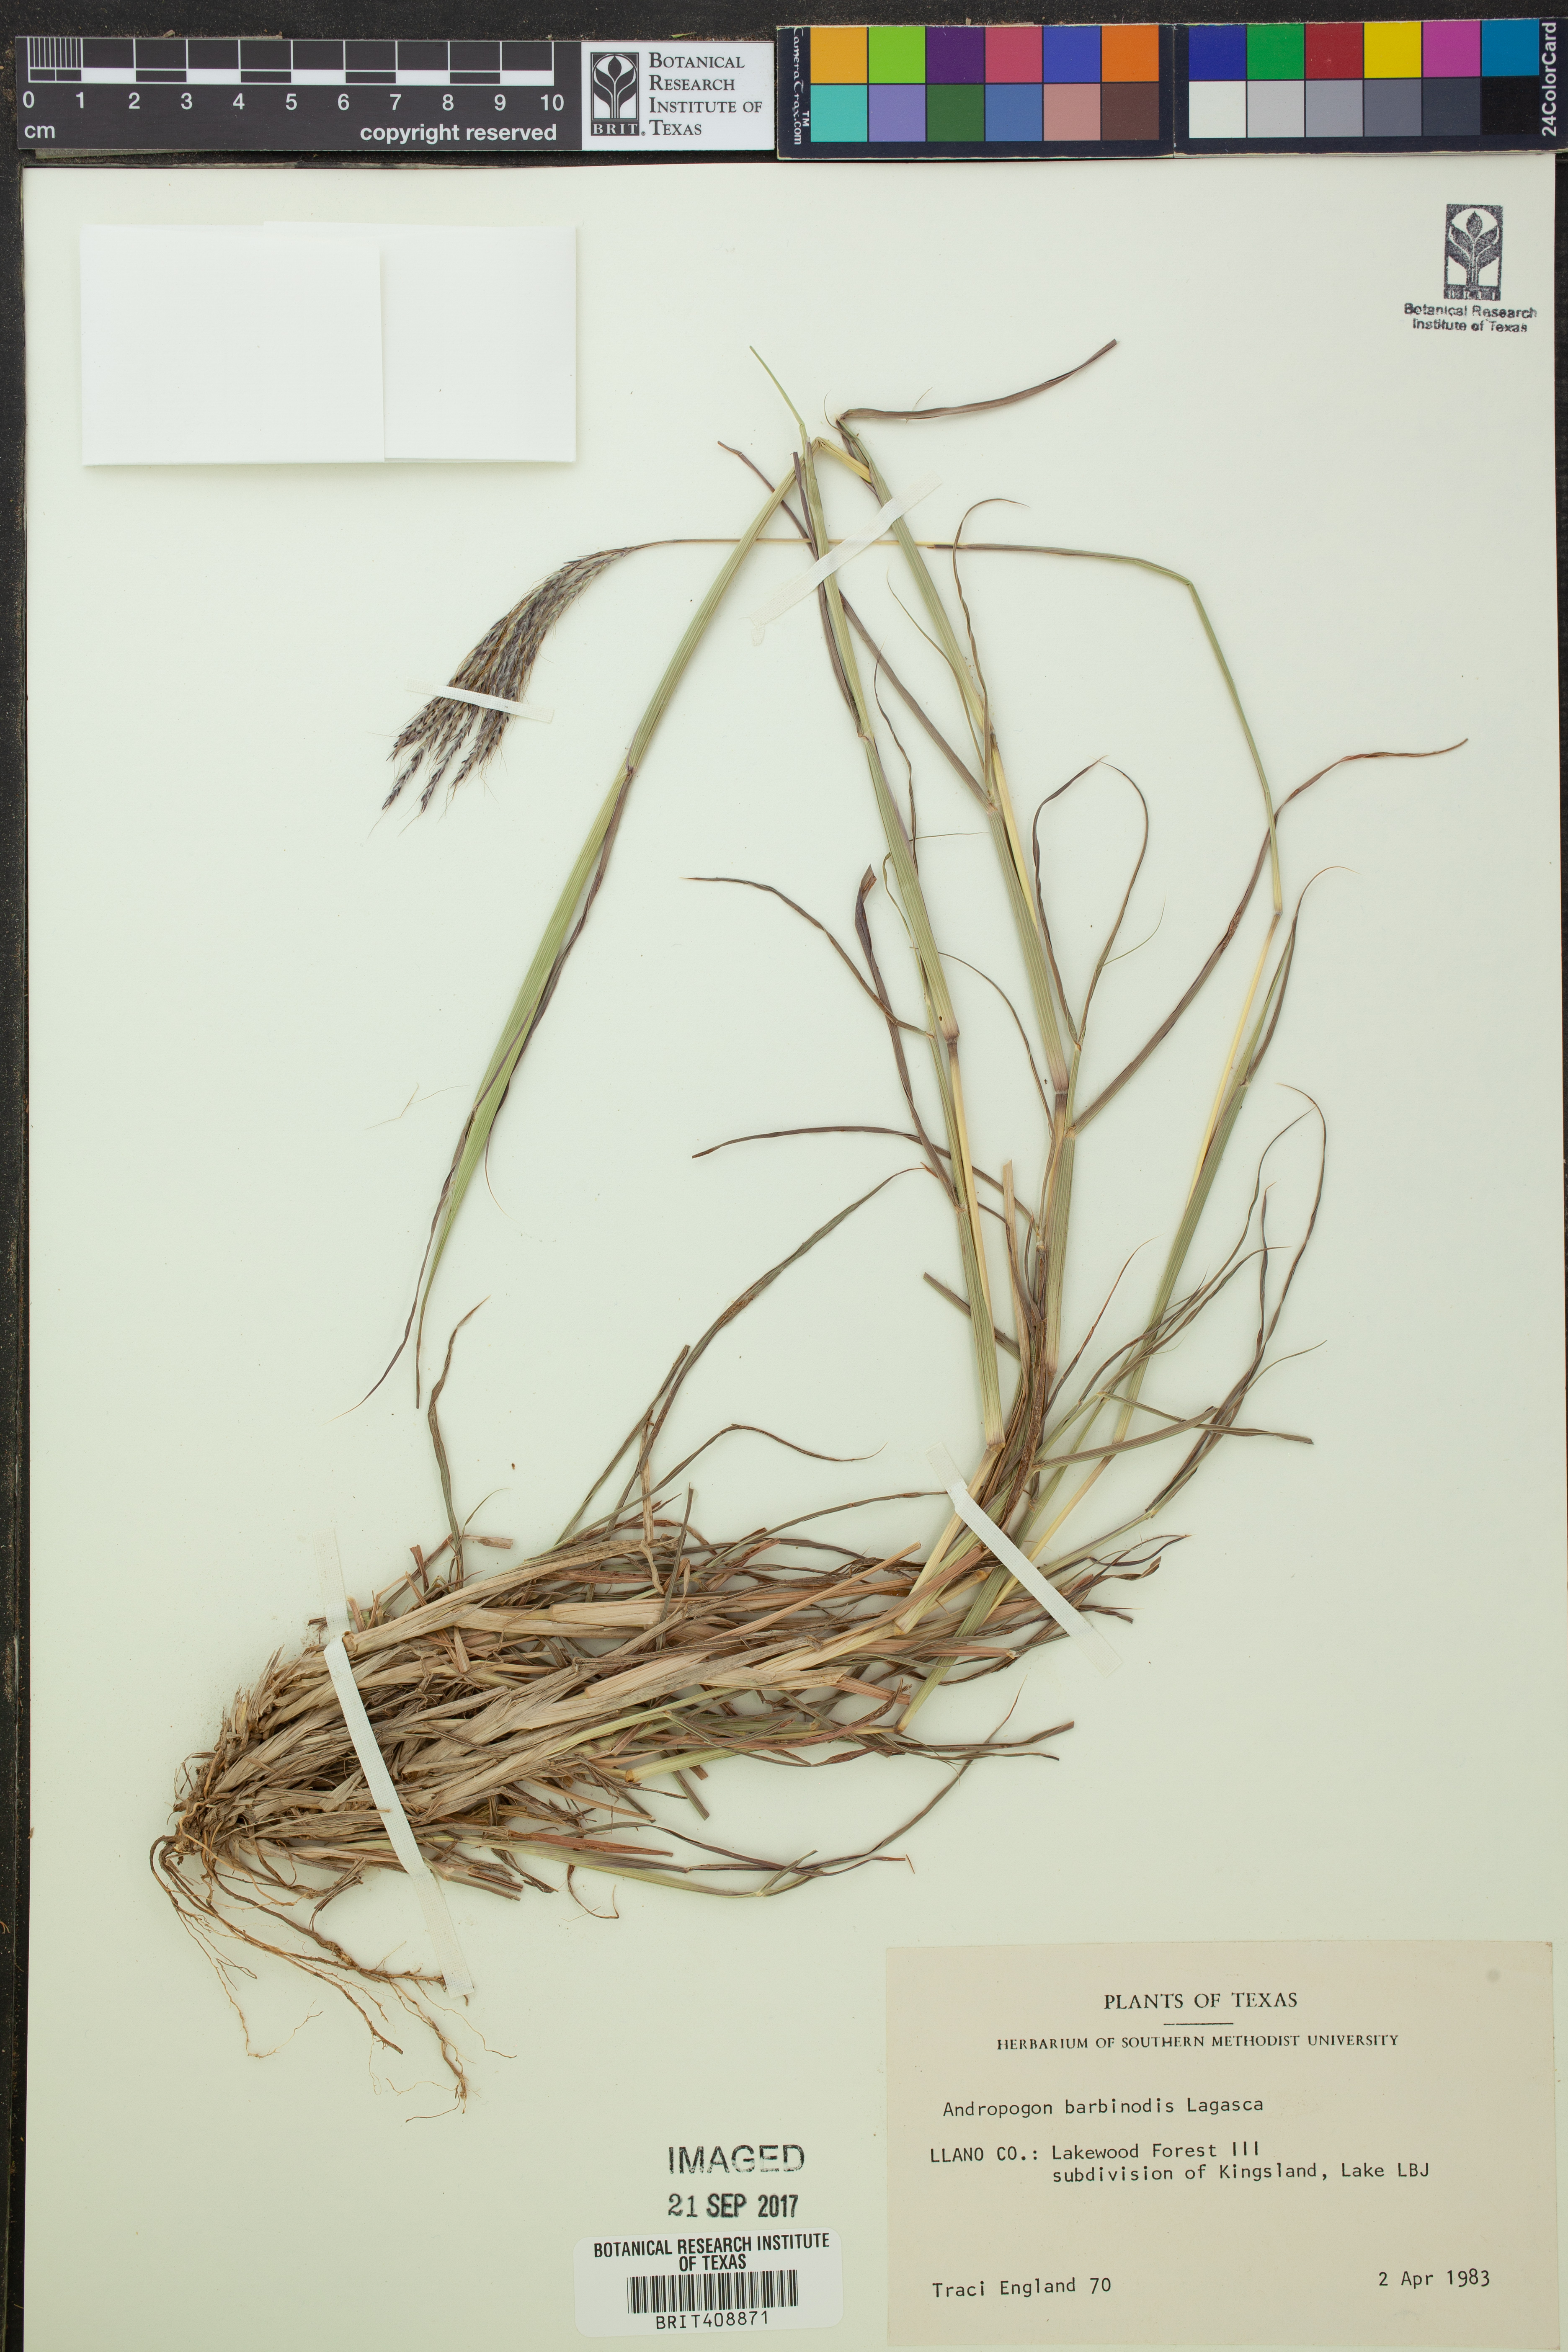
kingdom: Plantae
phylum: Tracheophyta
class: Liliopsida
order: Poales
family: Poaceae
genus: Bothriochloa
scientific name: Bothriochloa barbinodis
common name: Cane bluestem
